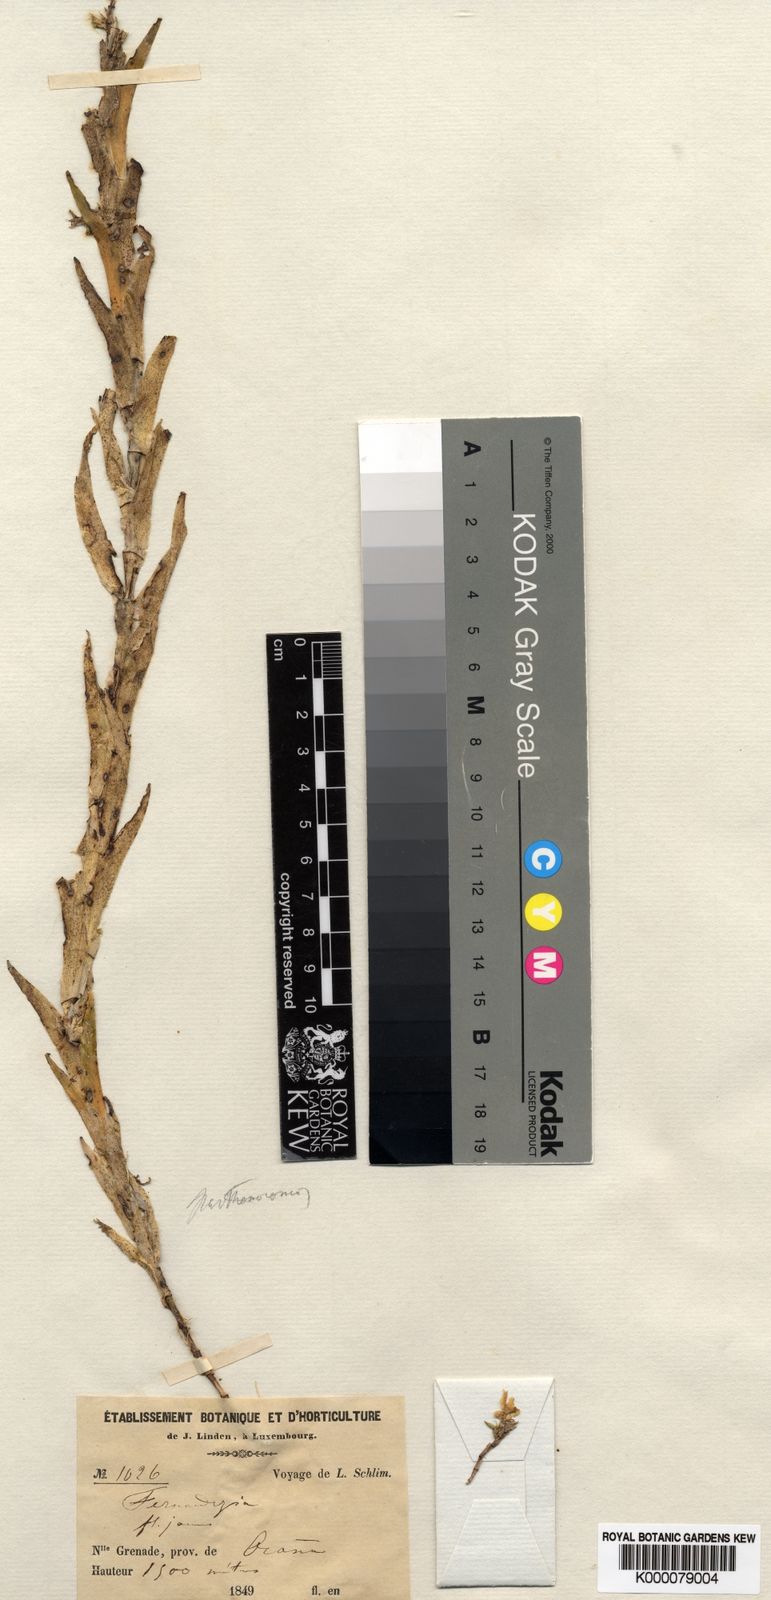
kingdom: Plantae
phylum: Tracheophyta
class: Liliopsida
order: Asparagales
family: Orchidaceae
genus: Lockhartia
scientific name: Lockhartia parthenocomos
